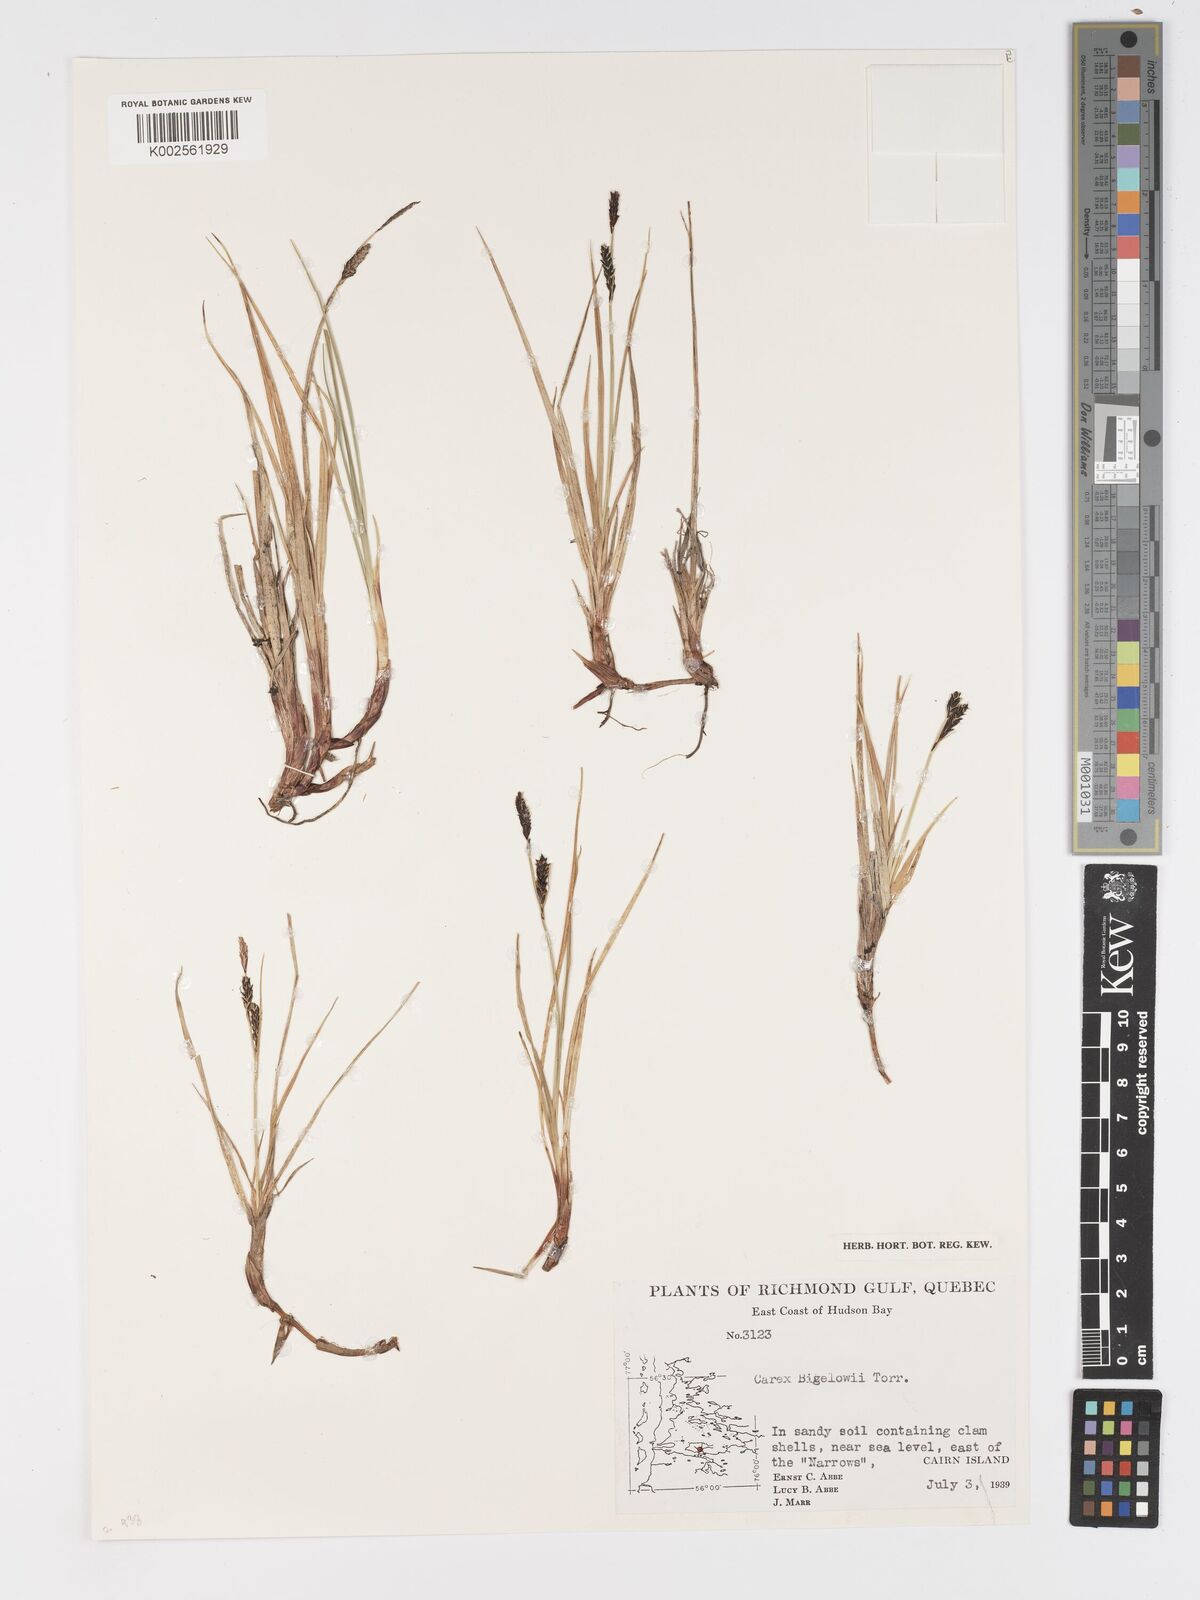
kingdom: Plantae
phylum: Tracheophyta
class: Liliopsida
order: Poales
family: Cyperaceae
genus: Carex
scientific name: Carex bigelowii
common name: Stiff sedge
